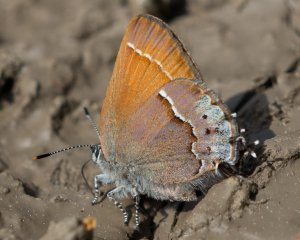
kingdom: Animalia
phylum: Arthropoda
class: Insecta
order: Lepidoptera
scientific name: Lepidoptera
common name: Butterflies
